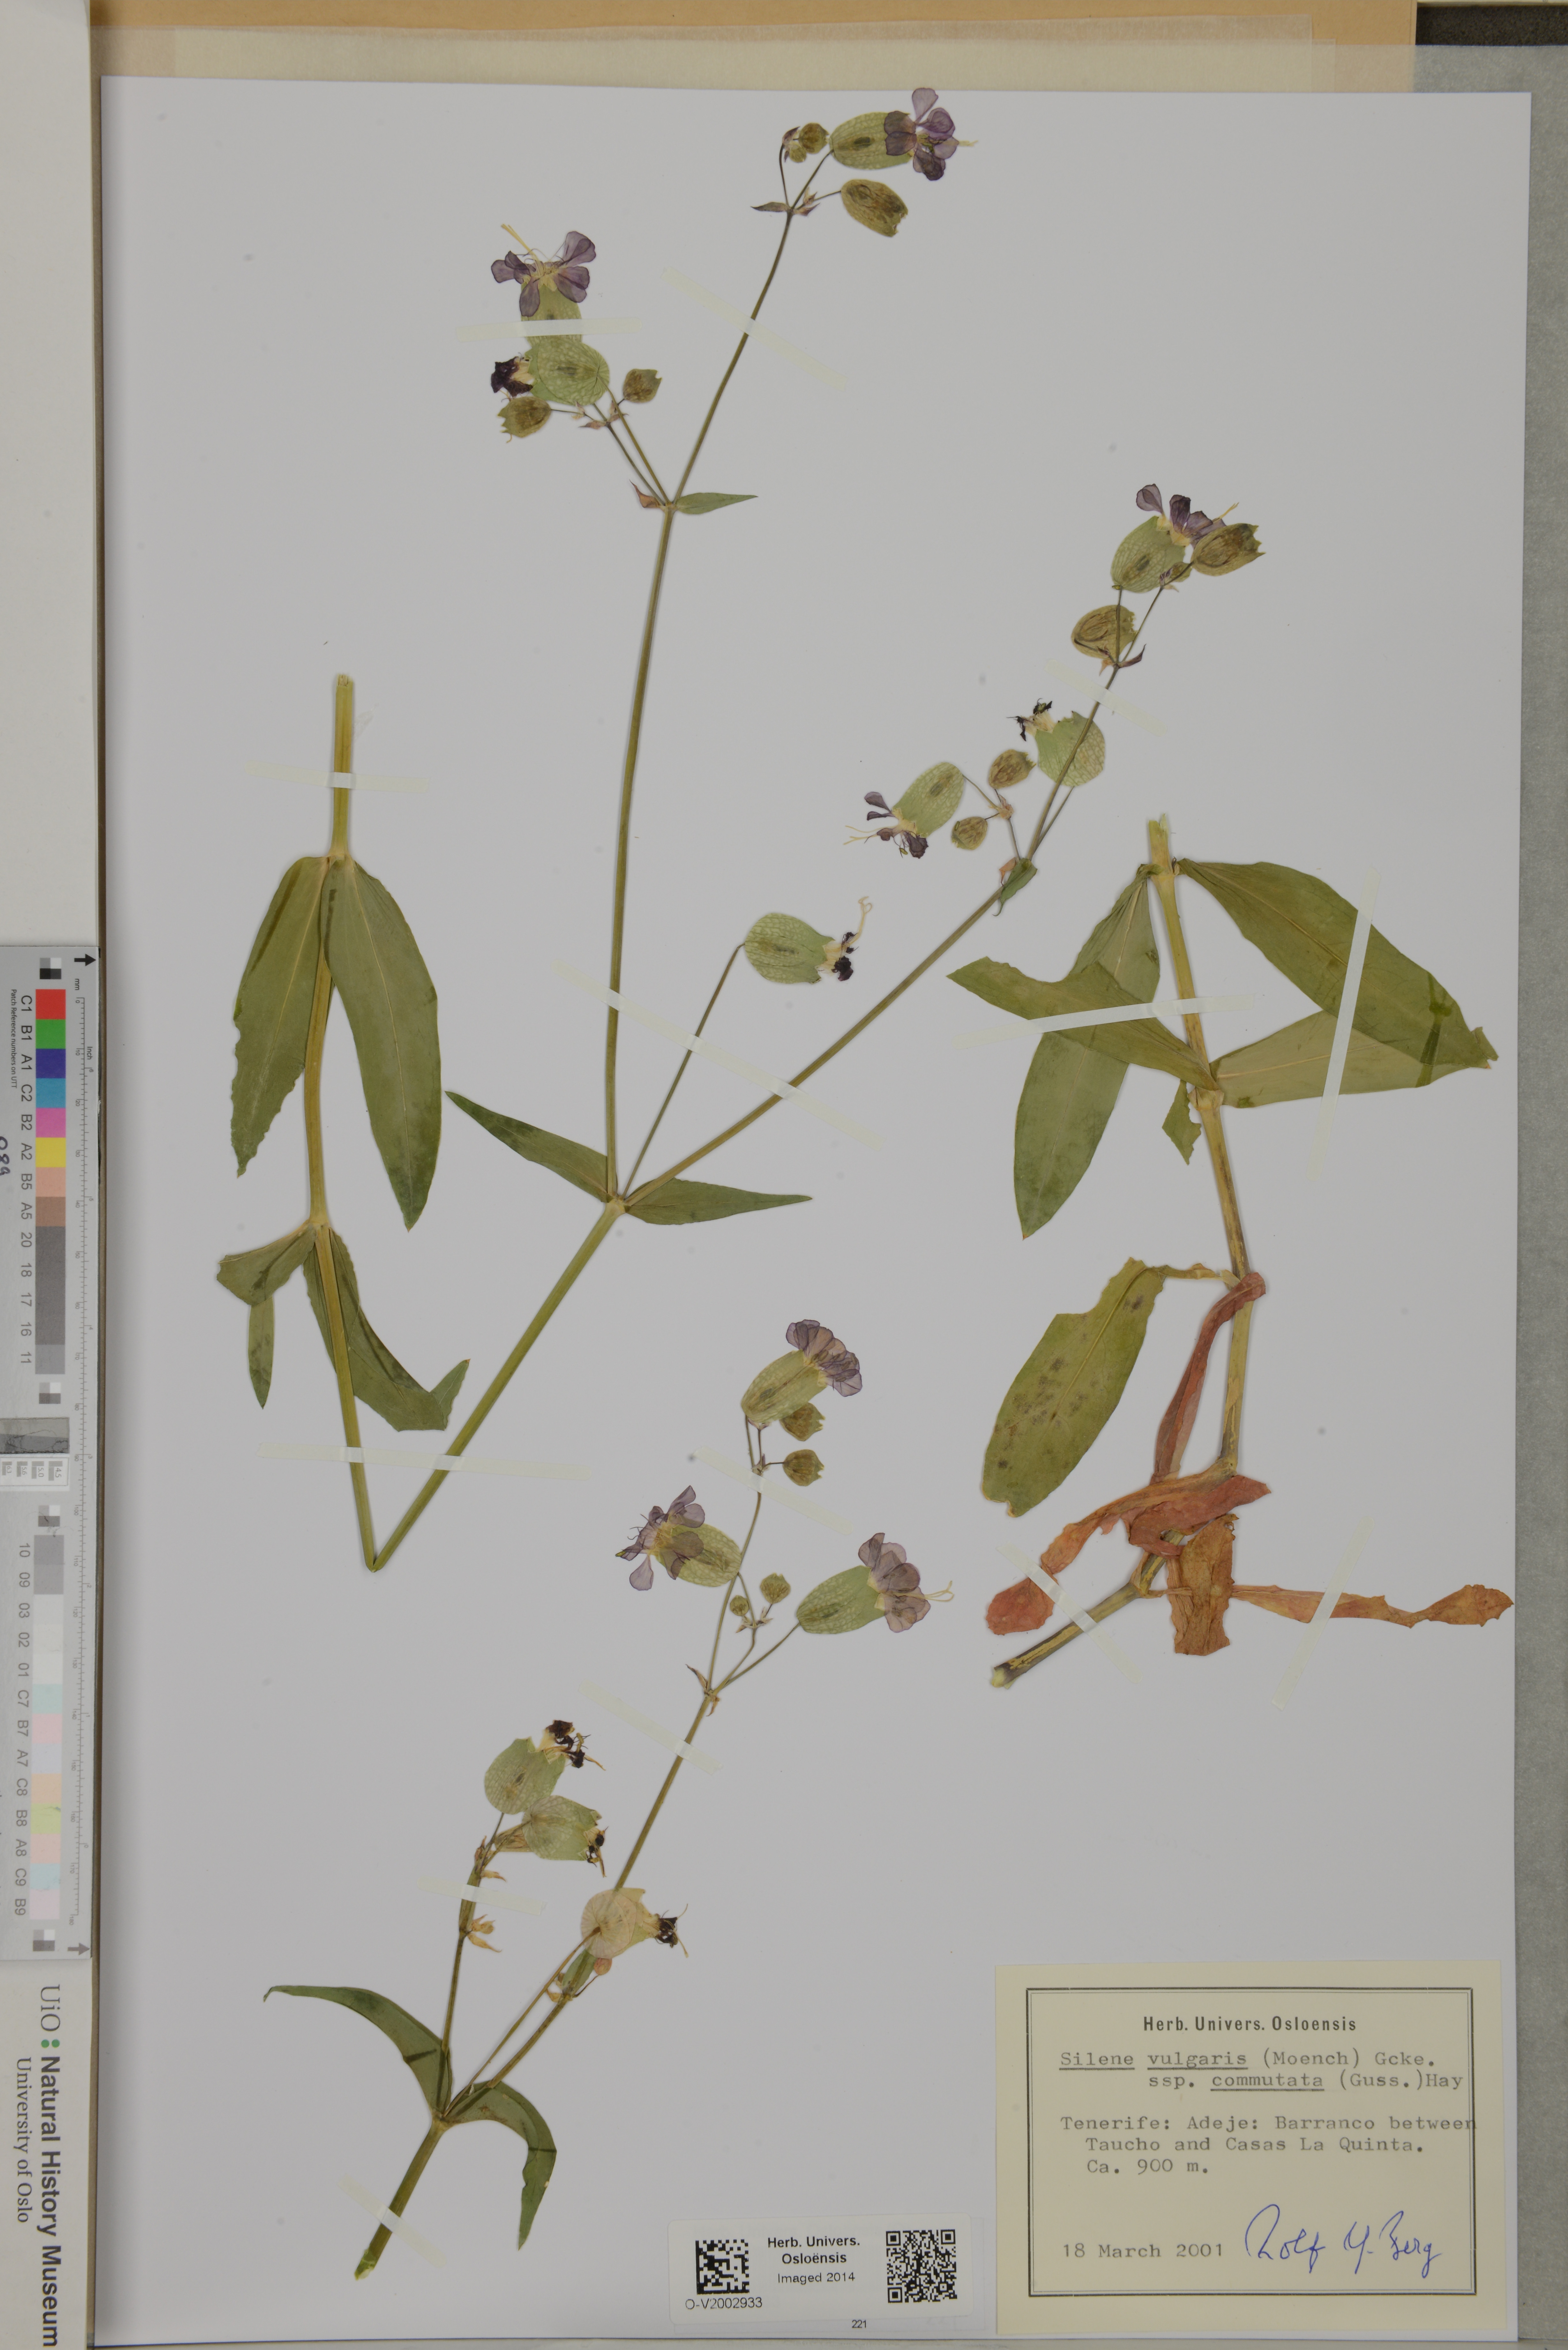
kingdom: Plantae
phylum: Tracheophyta
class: Magnoliopsida
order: Caryophyllales
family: Caryophyllaceae
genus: Silene
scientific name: Silene commutata
